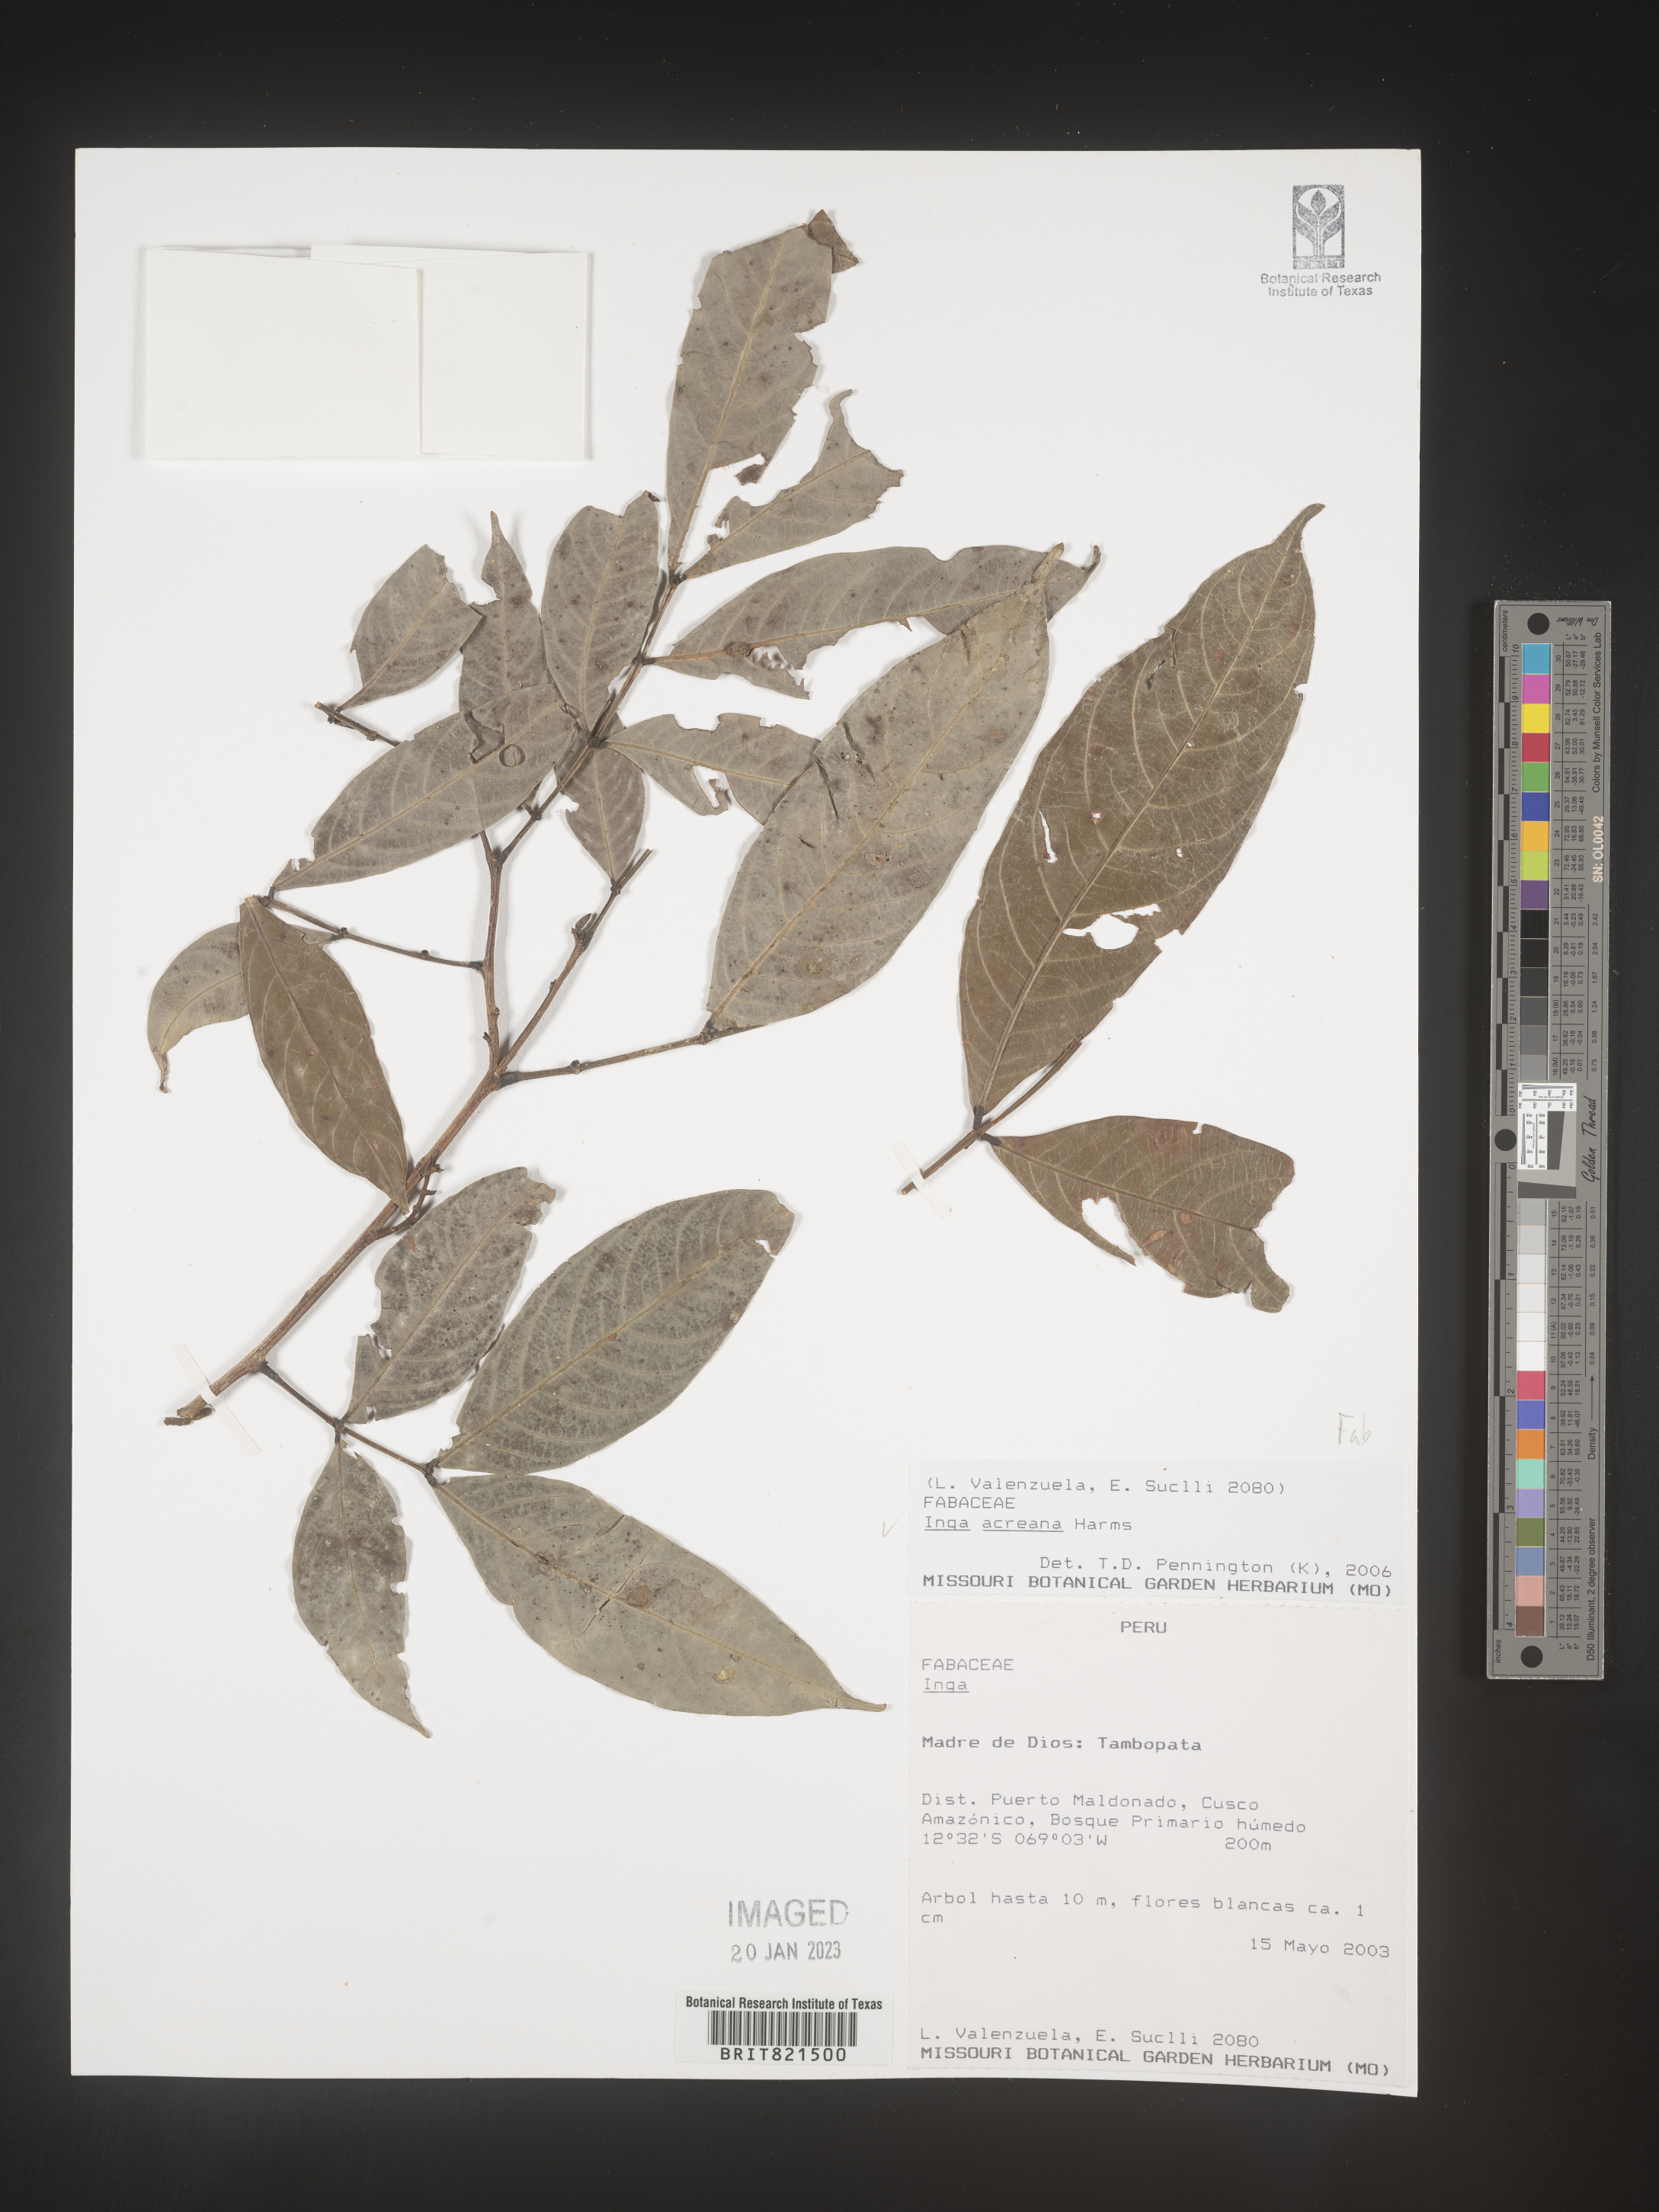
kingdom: Plantae
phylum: Tracheophyta
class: Magnoliopsida
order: Fabales
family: Fabaceae
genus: Inga
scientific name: Inga
